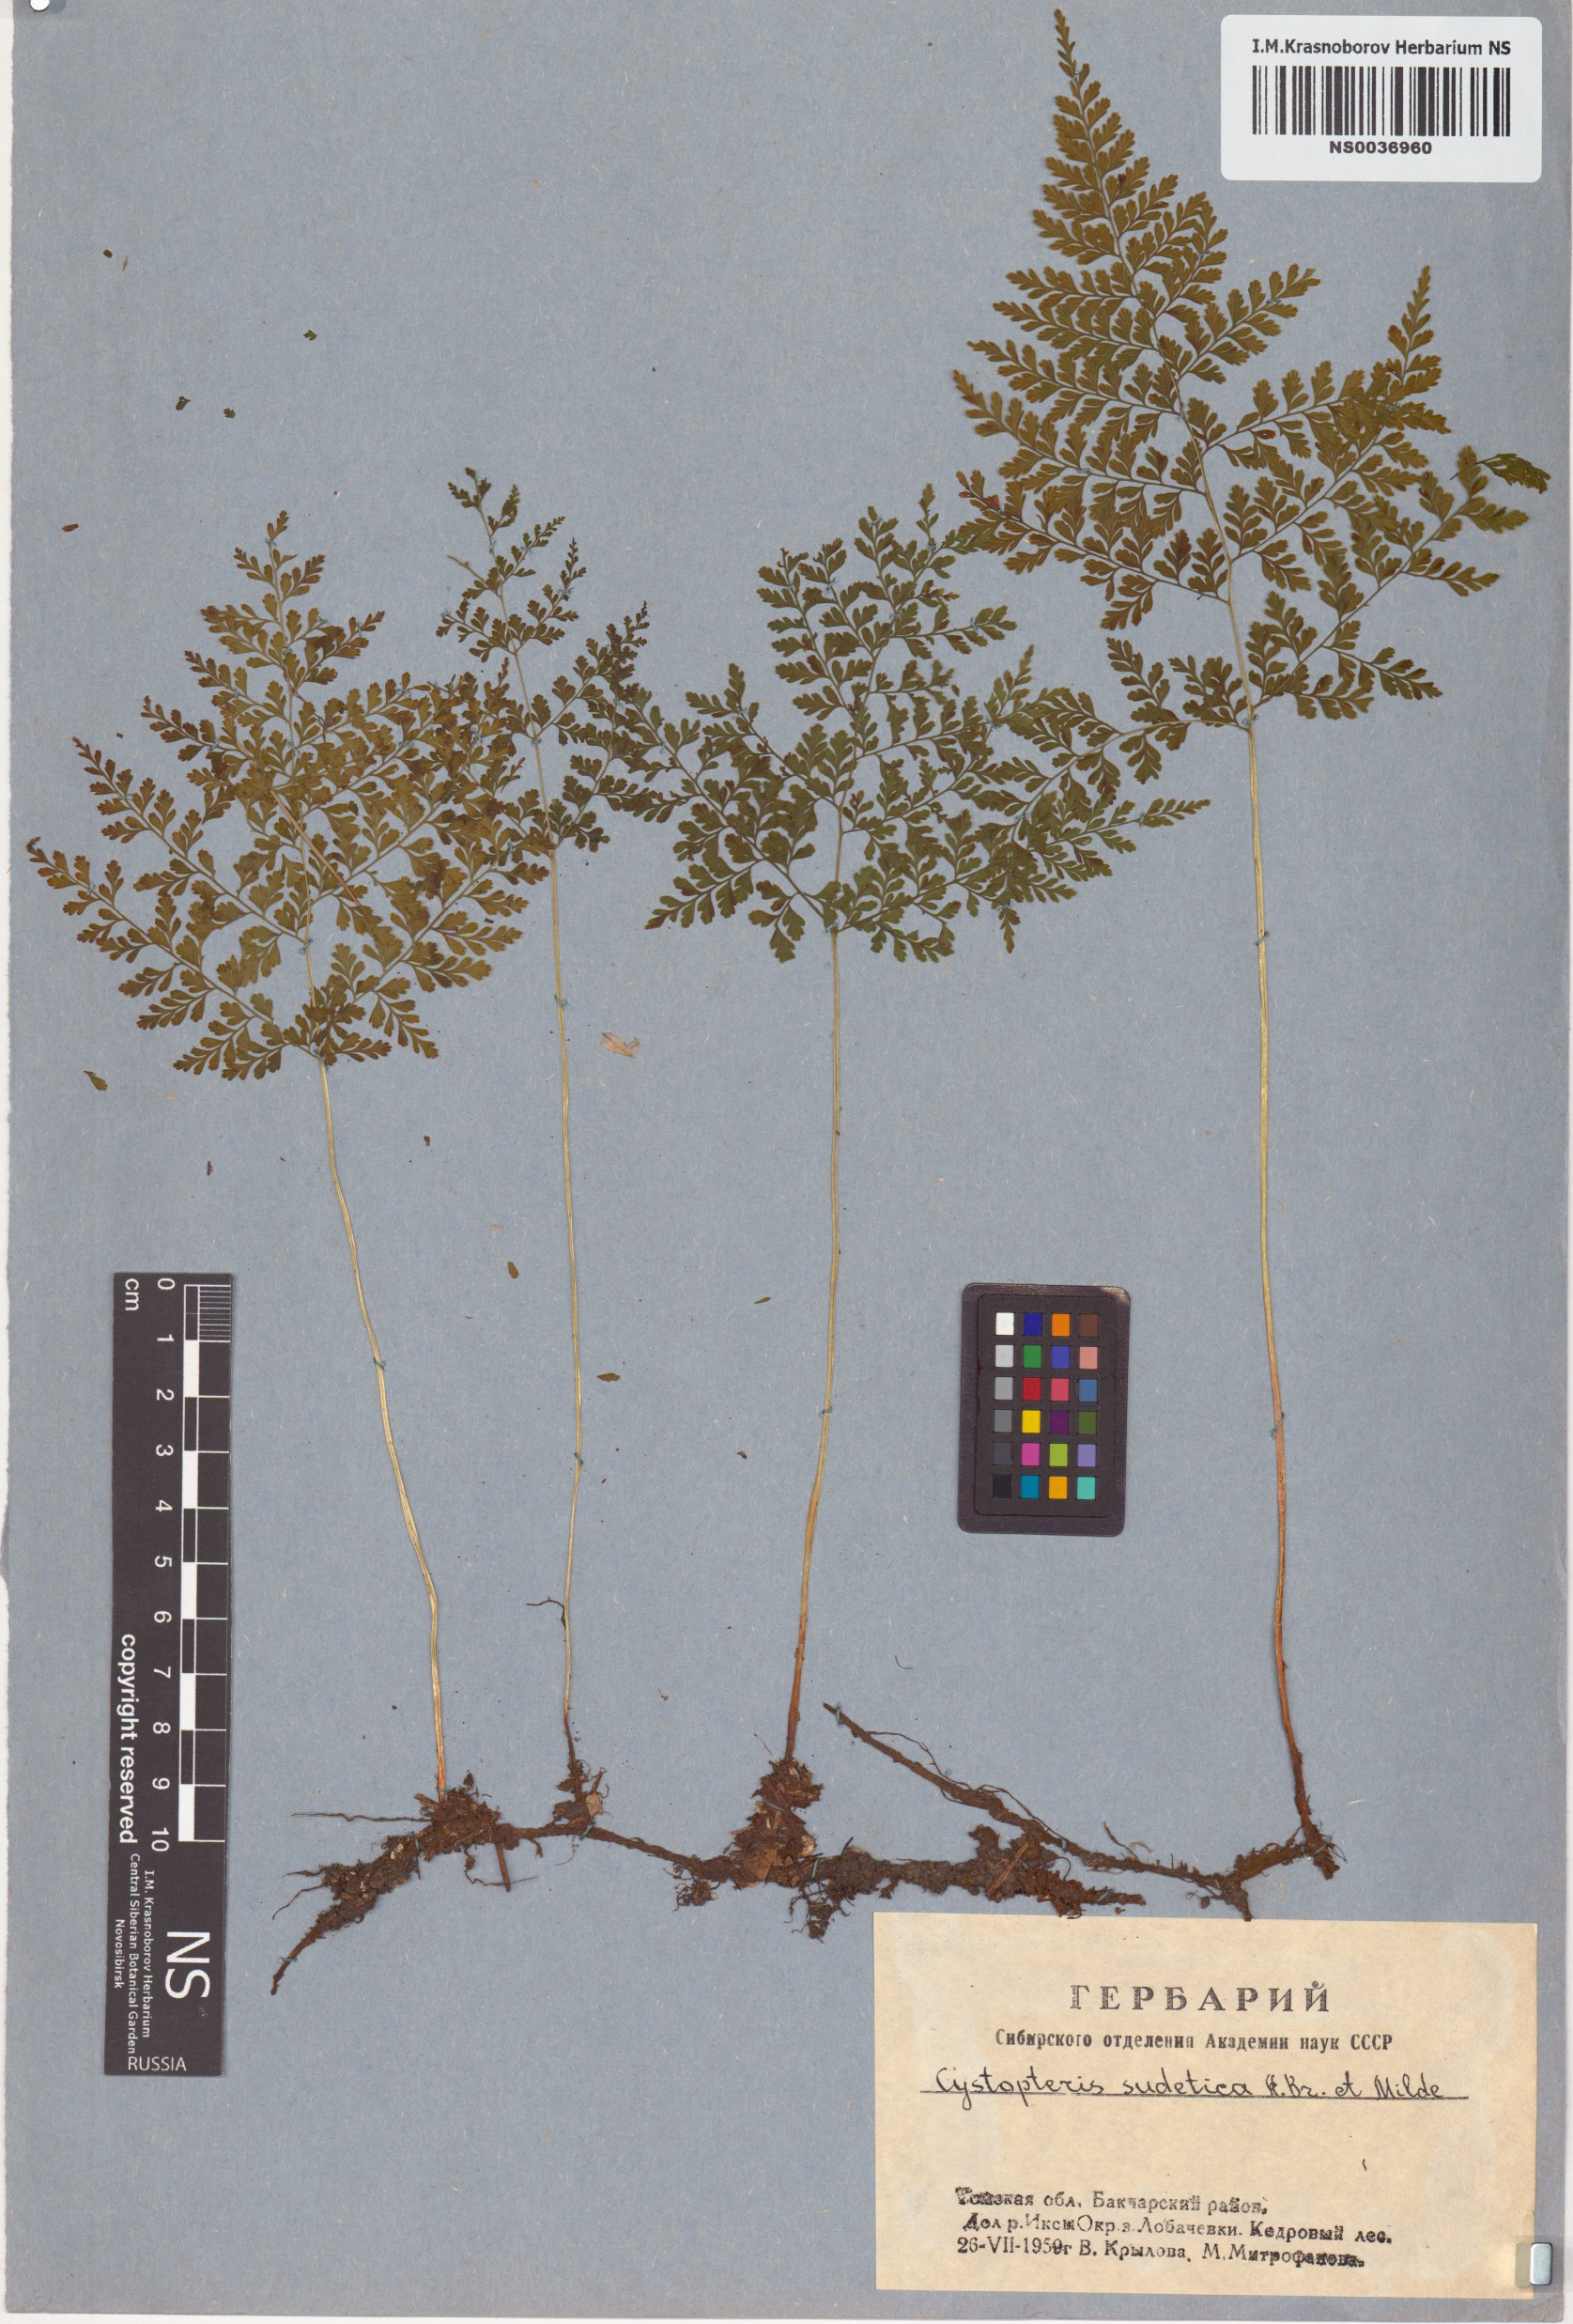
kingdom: Plantae
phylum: Tracheophyta
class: Polypodiopsida
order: Polypodiales
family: Cystopteridaceae
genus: Cystopteris
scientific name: Cystopteris sudetica
